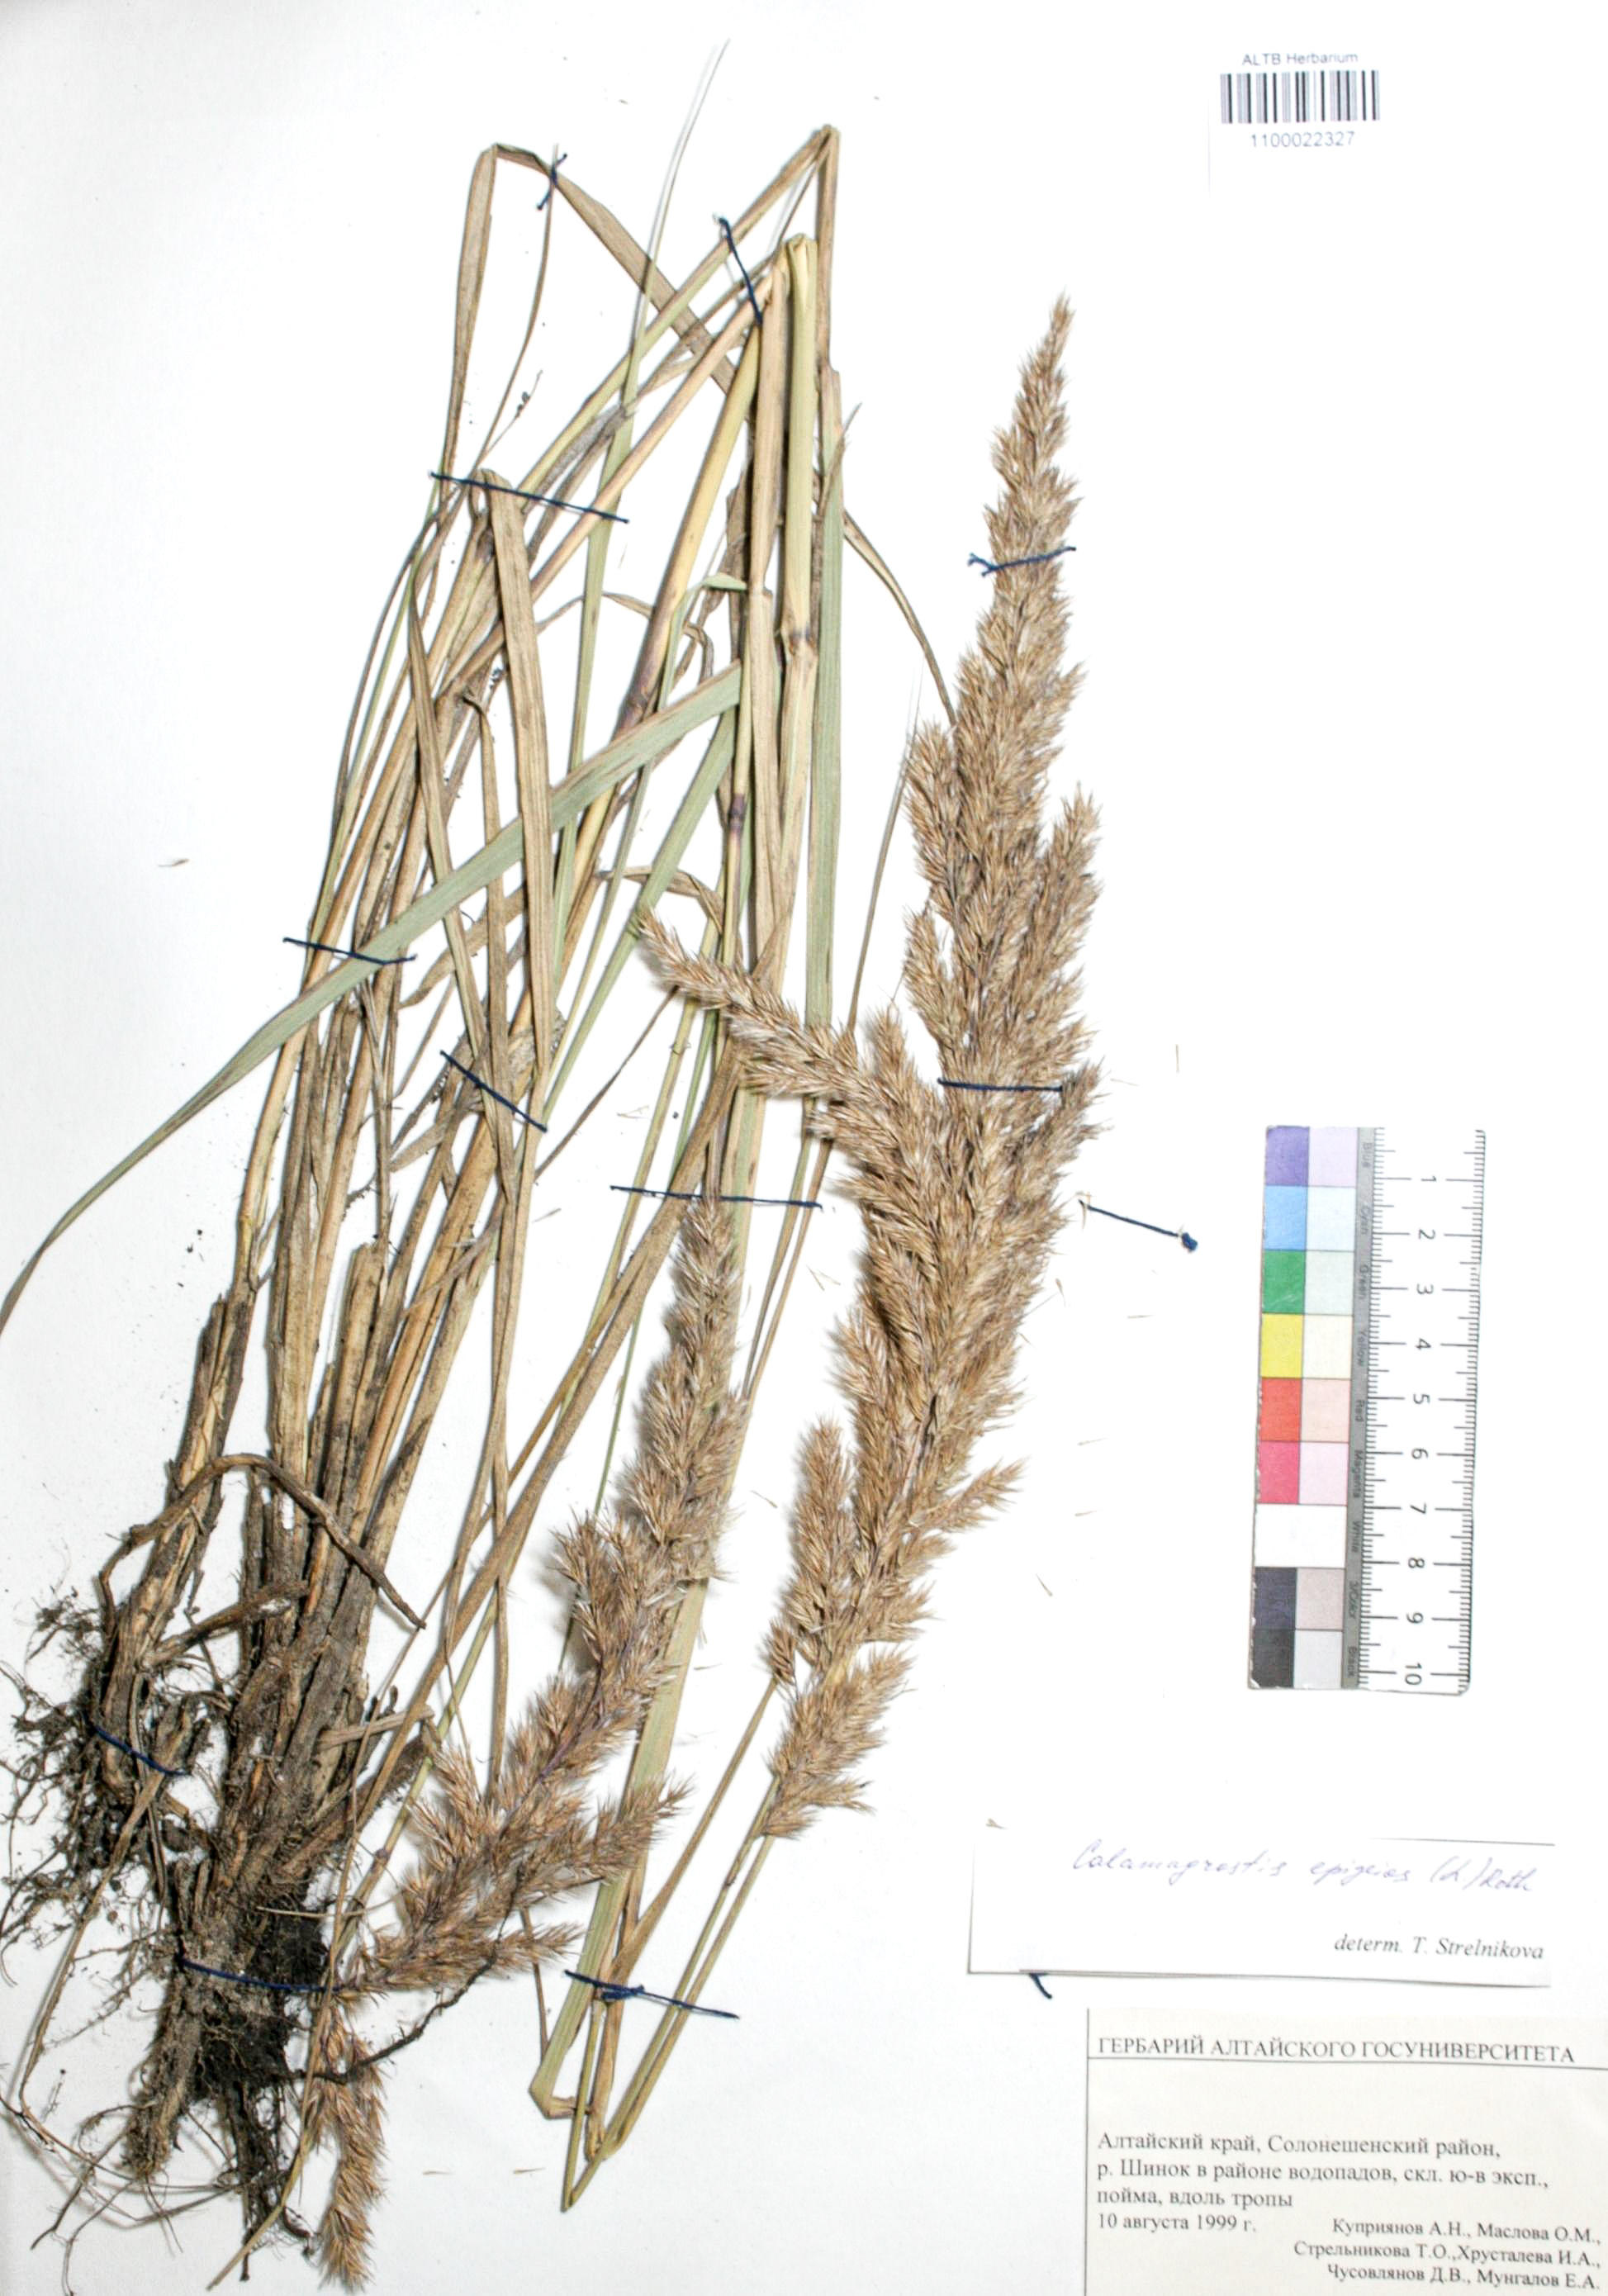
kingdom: Plantae
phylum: Tracheophyta
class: Liliopsida
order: Poales
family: Poaceae
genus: Calamagrostis
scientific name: Calamagrostis epigejos
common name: Wood small-reed
